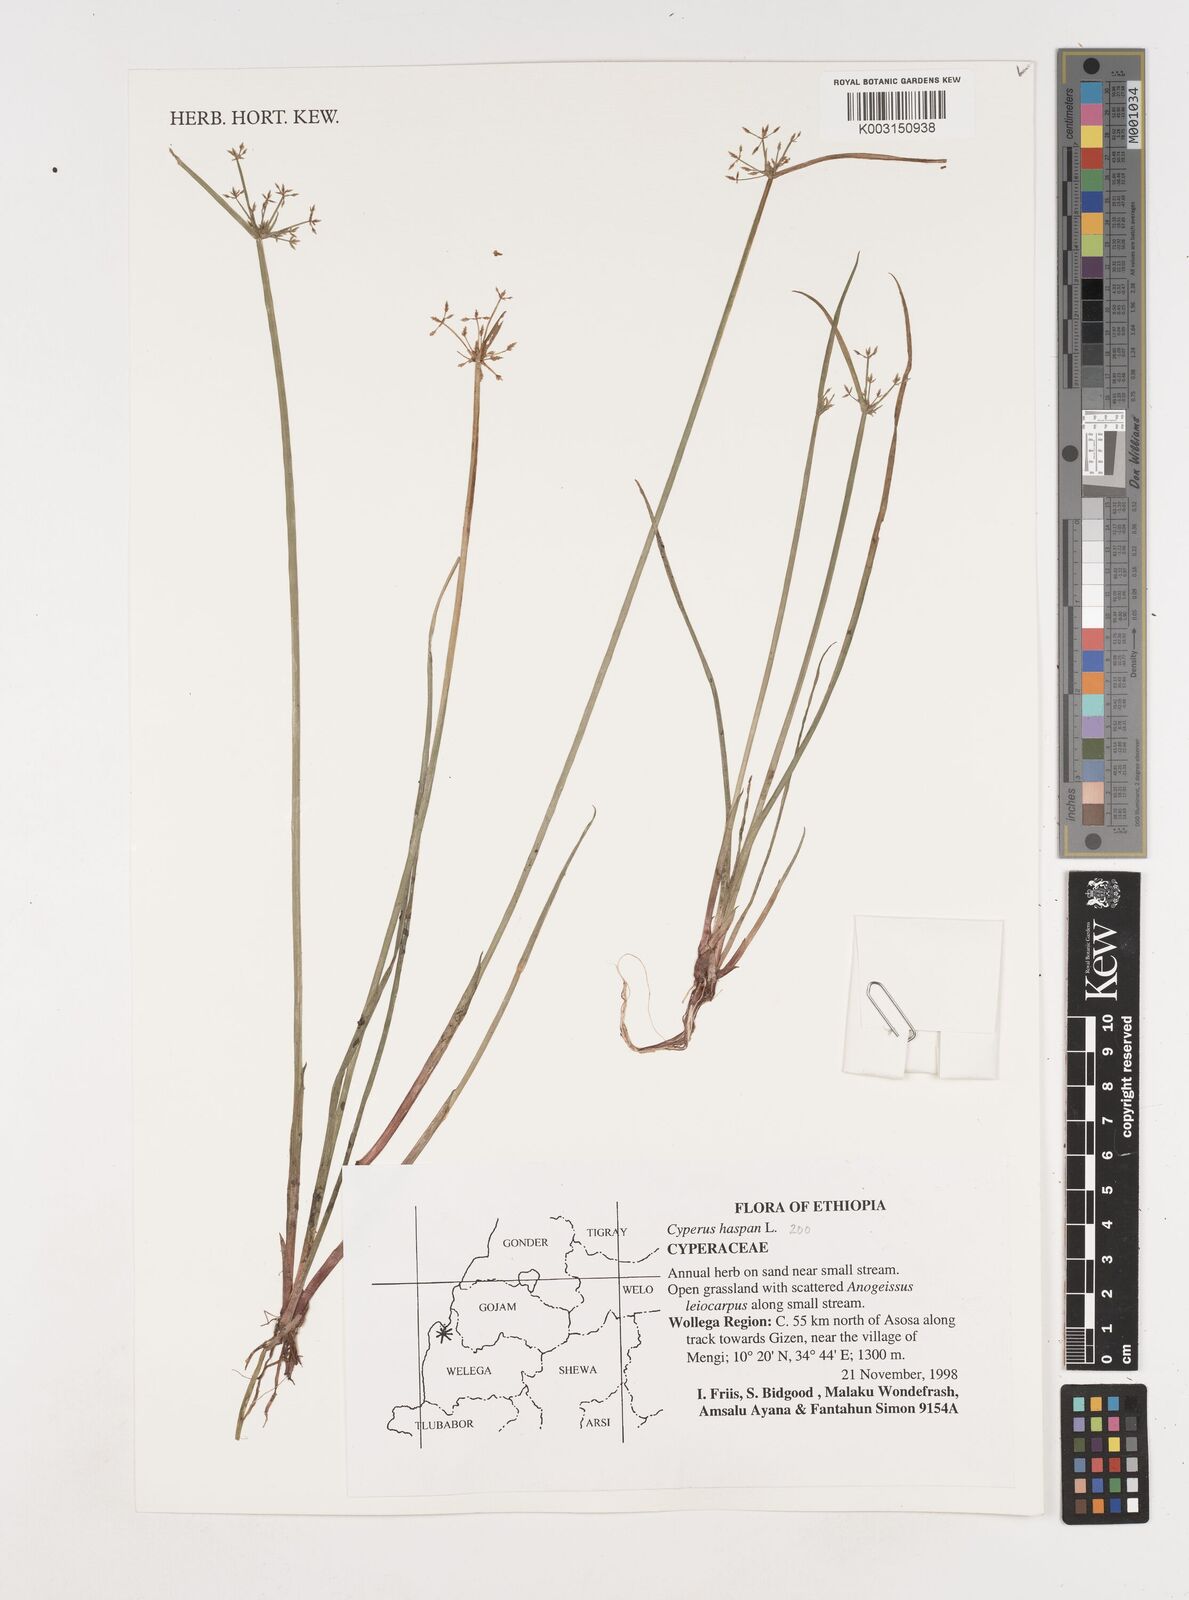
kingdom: Plantae
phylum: Tracheophyta
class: Liliopsida
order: Poales
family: Cyperaceae
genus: Cyperus
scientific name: Cyperus haspan
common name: Haspan flatsedge
